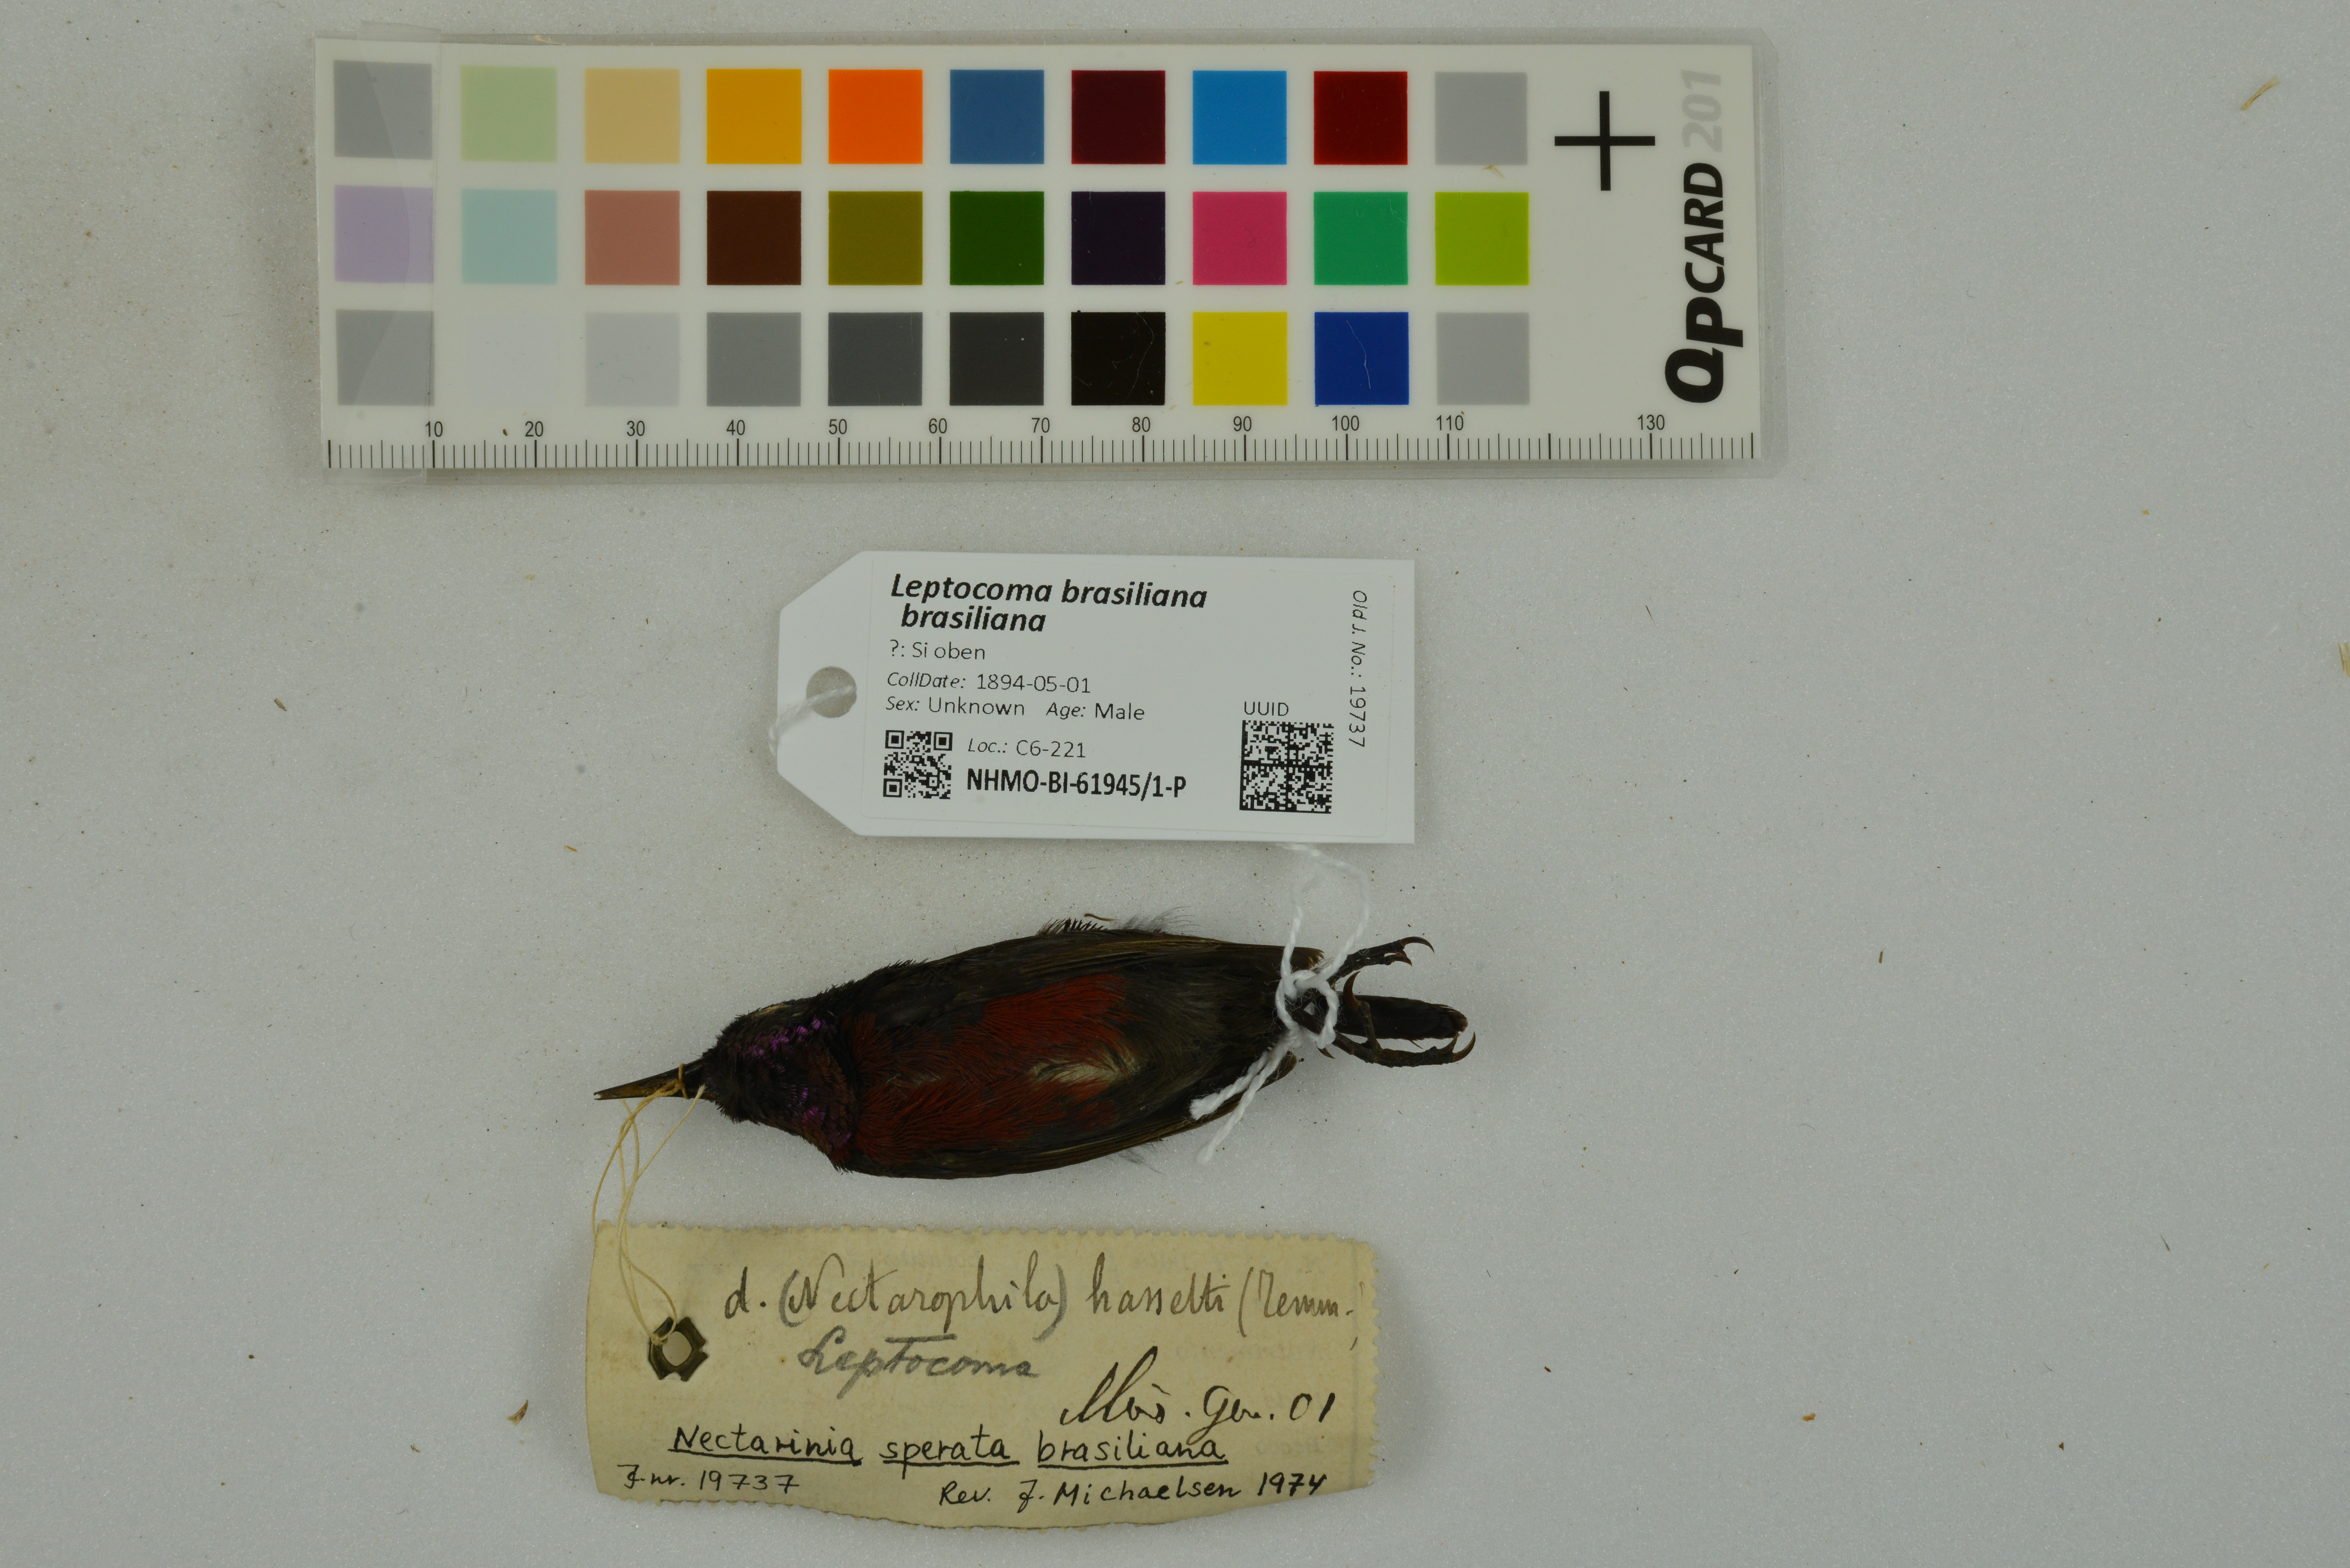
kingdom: Animalia
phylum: Chordata
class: Aves
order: Passeriformes
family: Nectariniidae
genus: Leptocoma
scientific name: Leptocoma brasiliana
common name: Van hasselt's sunbird
